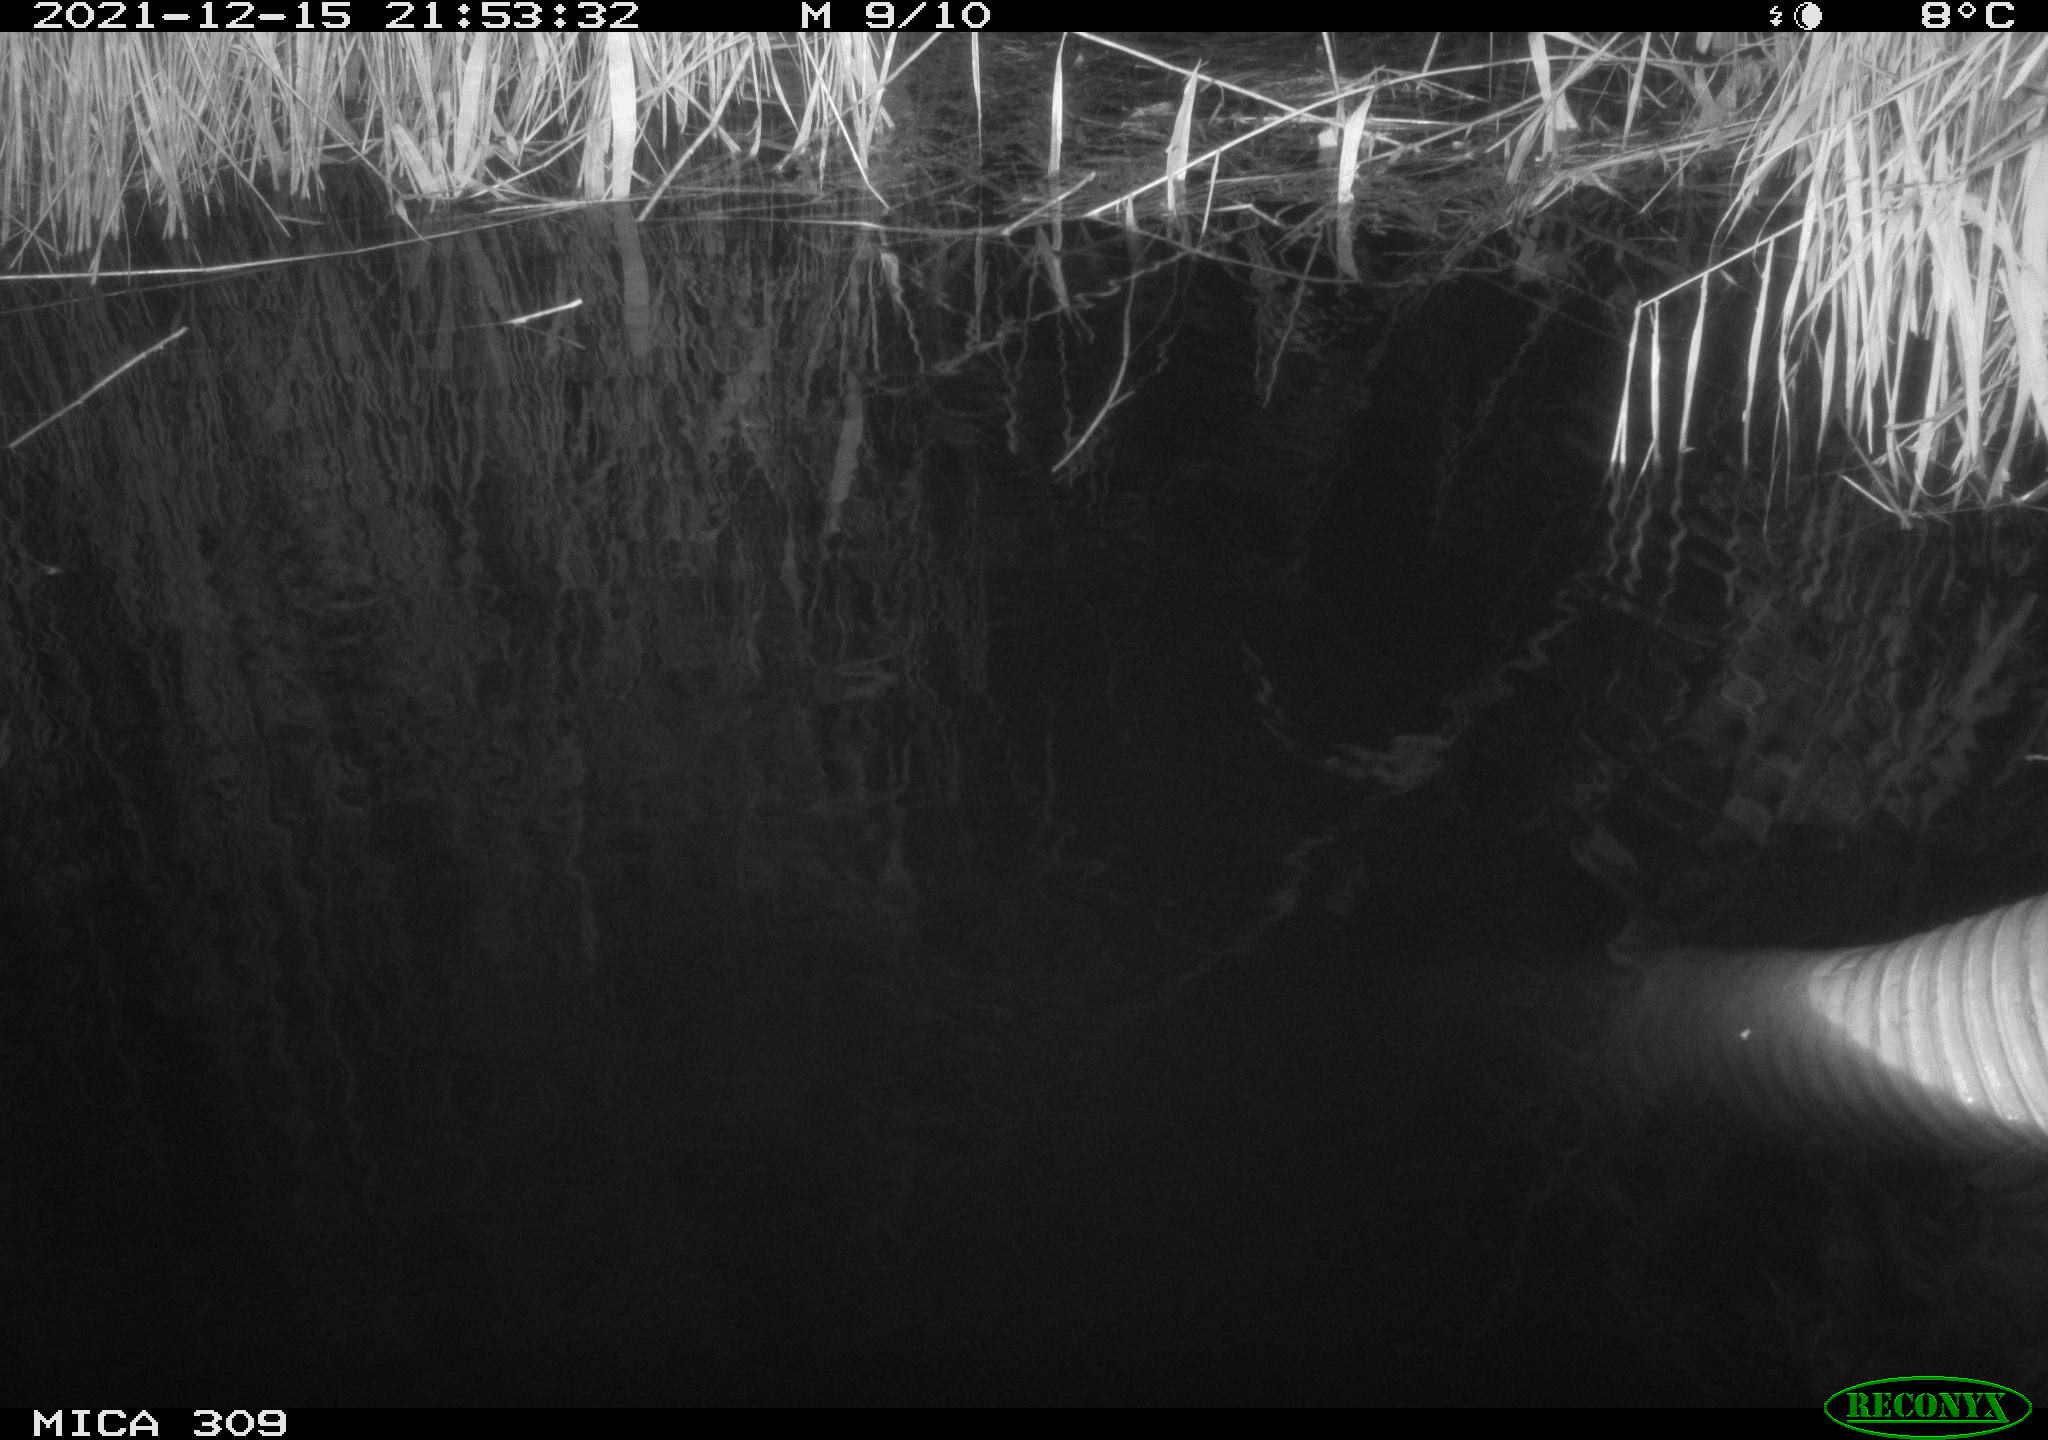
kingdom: Animalia
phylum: Chordata
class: Mammalia
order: Rodentia
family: Muridae
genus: Rattus
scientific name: Rattus norvegicus
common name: Brown rat
